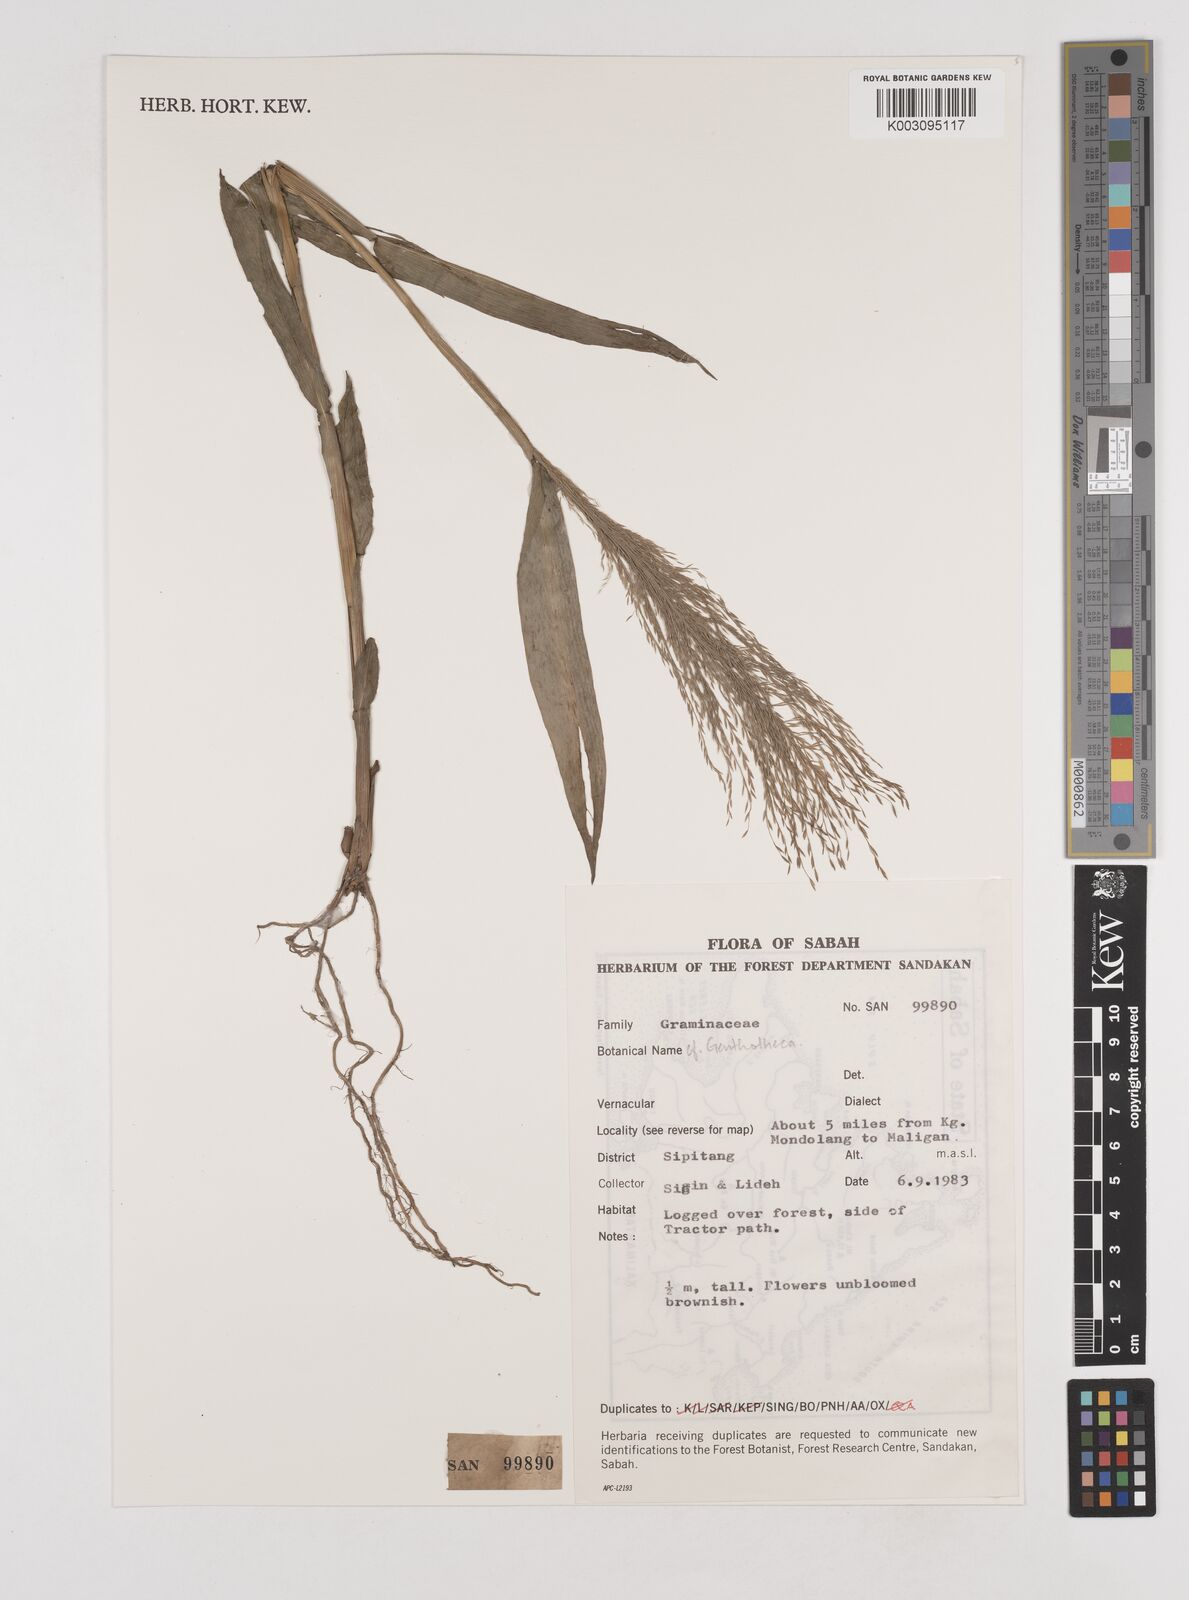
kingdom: Plantae
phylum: Tracheophyta
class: Liliopsida
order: Poales
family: Poaceae
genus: Centotheca
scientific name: Centotheca
